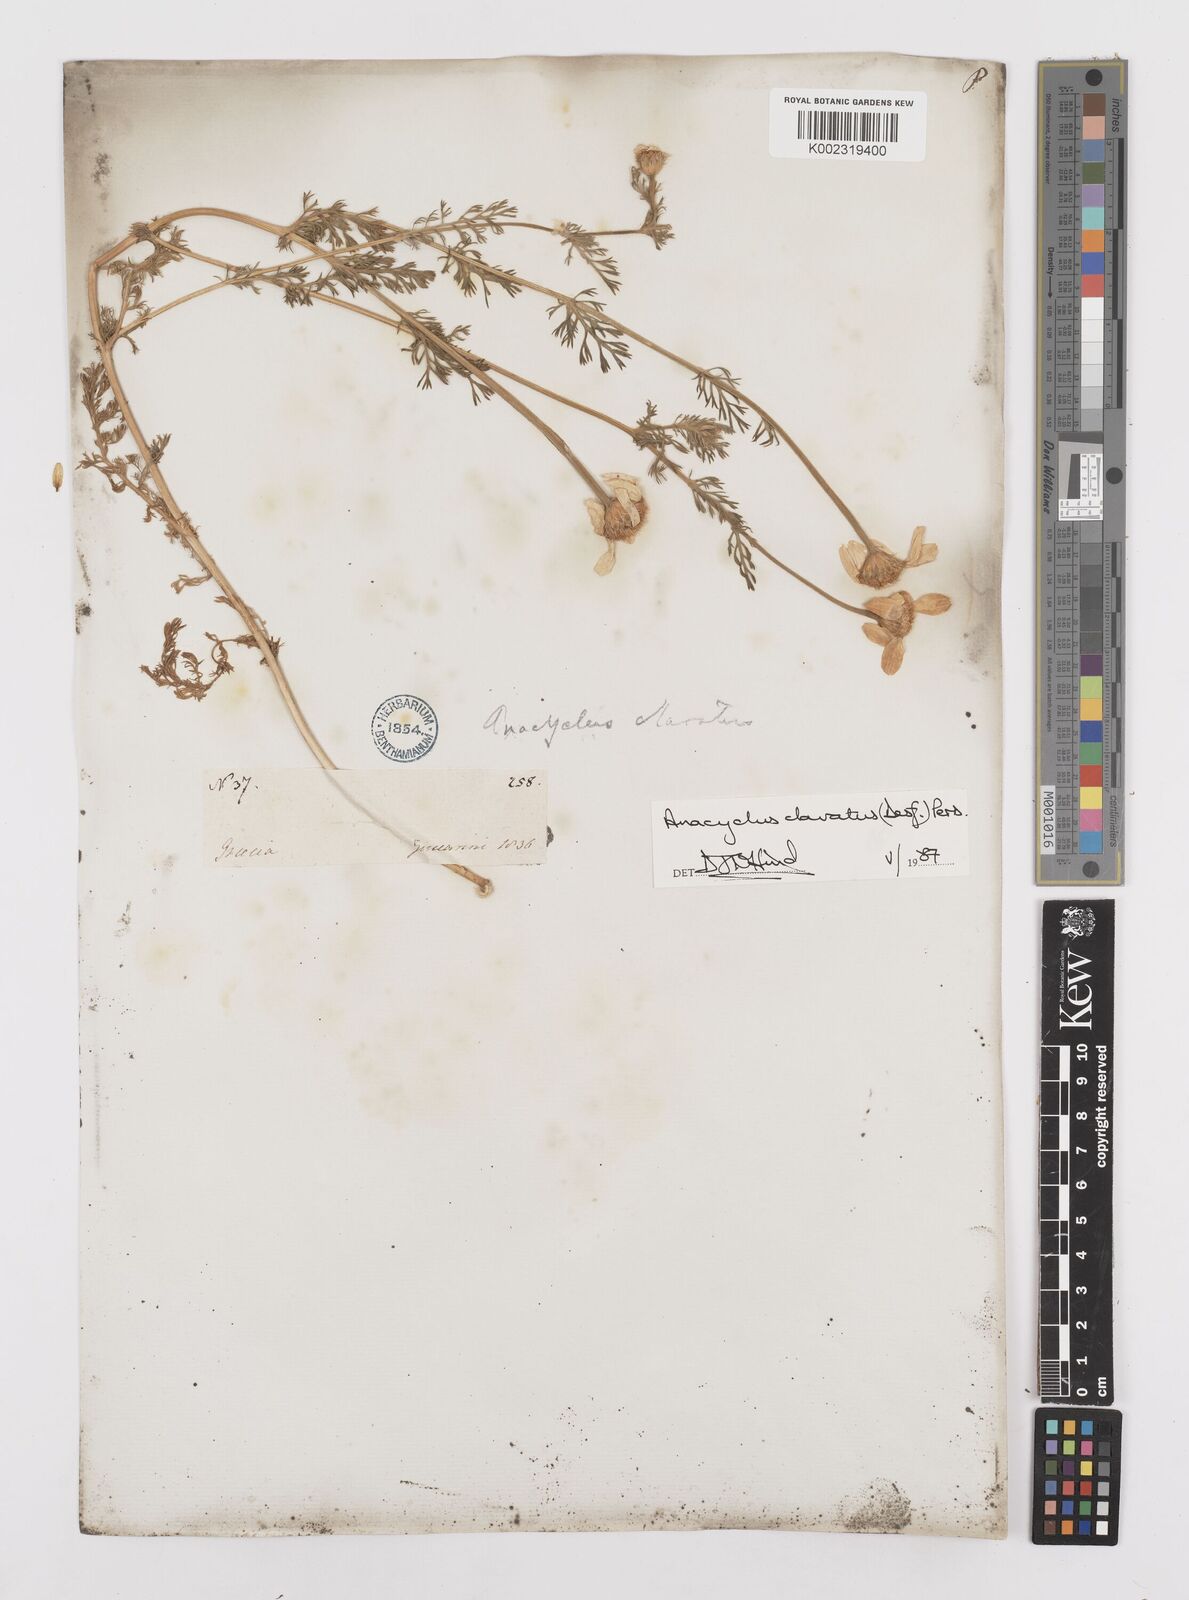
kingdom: Plantae
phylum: Tracheophyta
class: Magnoliopsida
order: Asterales
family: Asteraceae
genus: Anacyclus
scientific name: Anacyclus clavatus
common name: Whitebuttons
